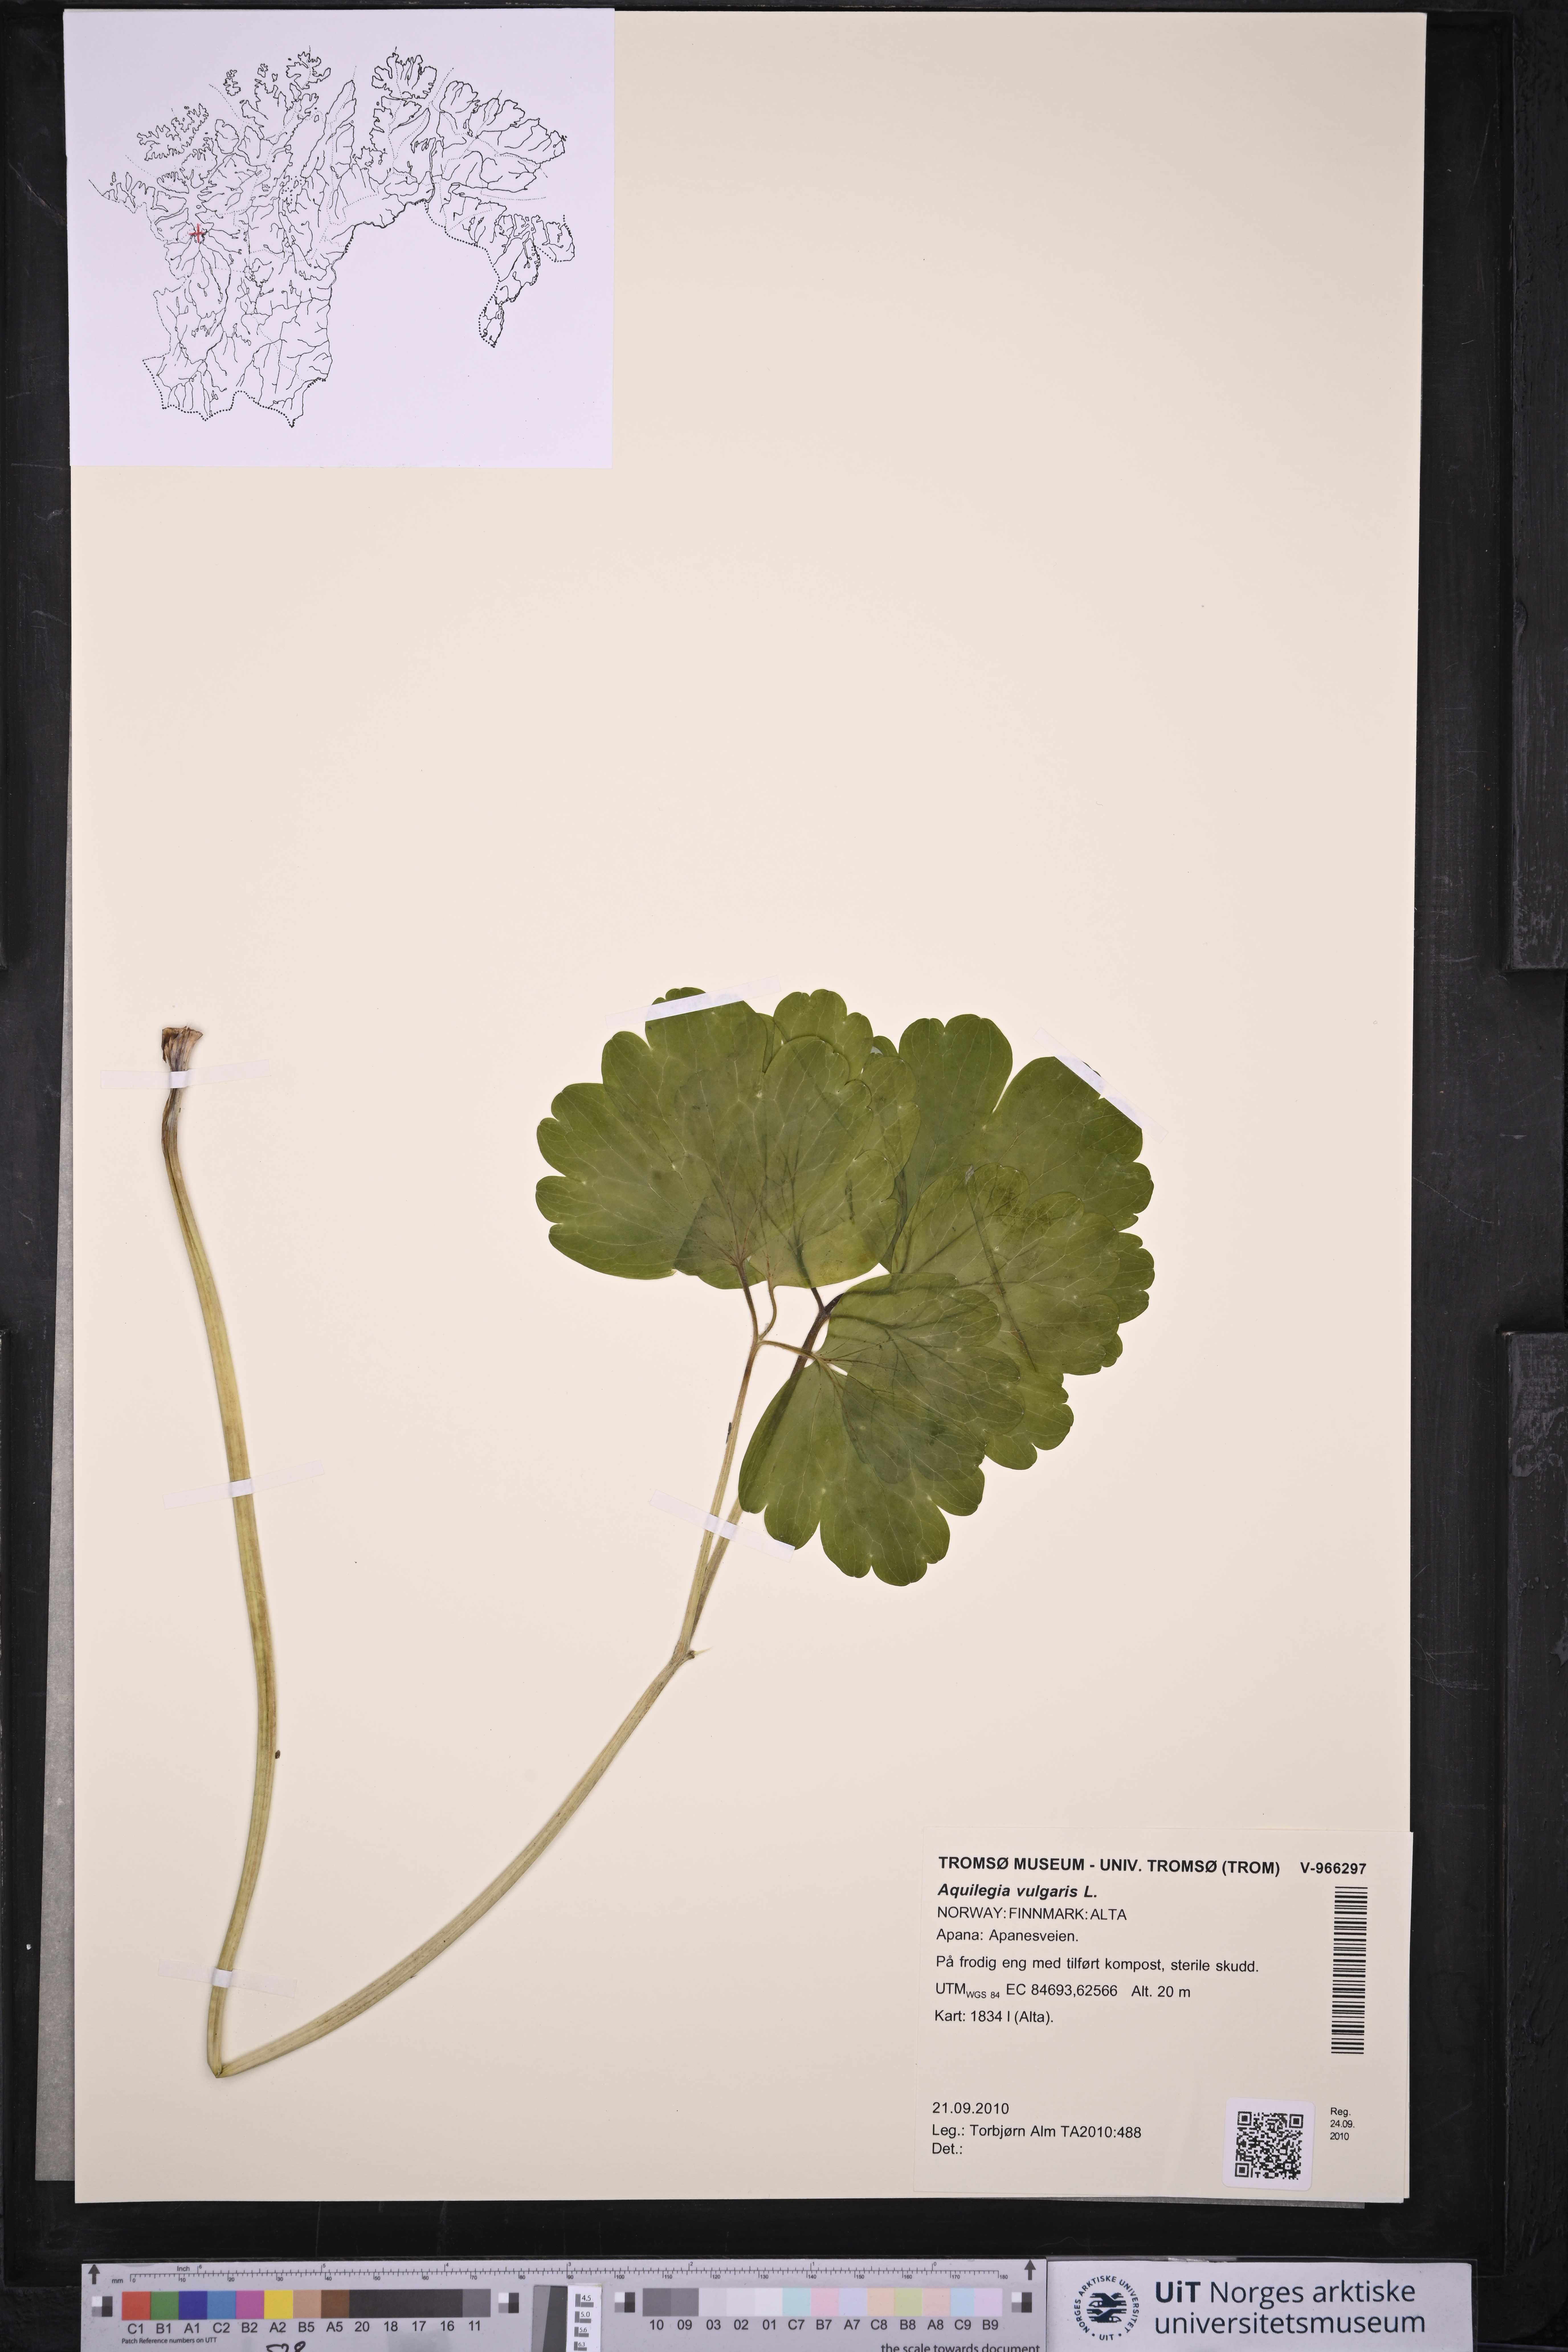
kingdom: Plantae
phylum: Tracheophyta
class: Magnoliopsida
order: Ranunculales
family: Ranunculaceae
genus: Aquilegia
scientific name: Aquilegia vulgaris
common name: Columbine
